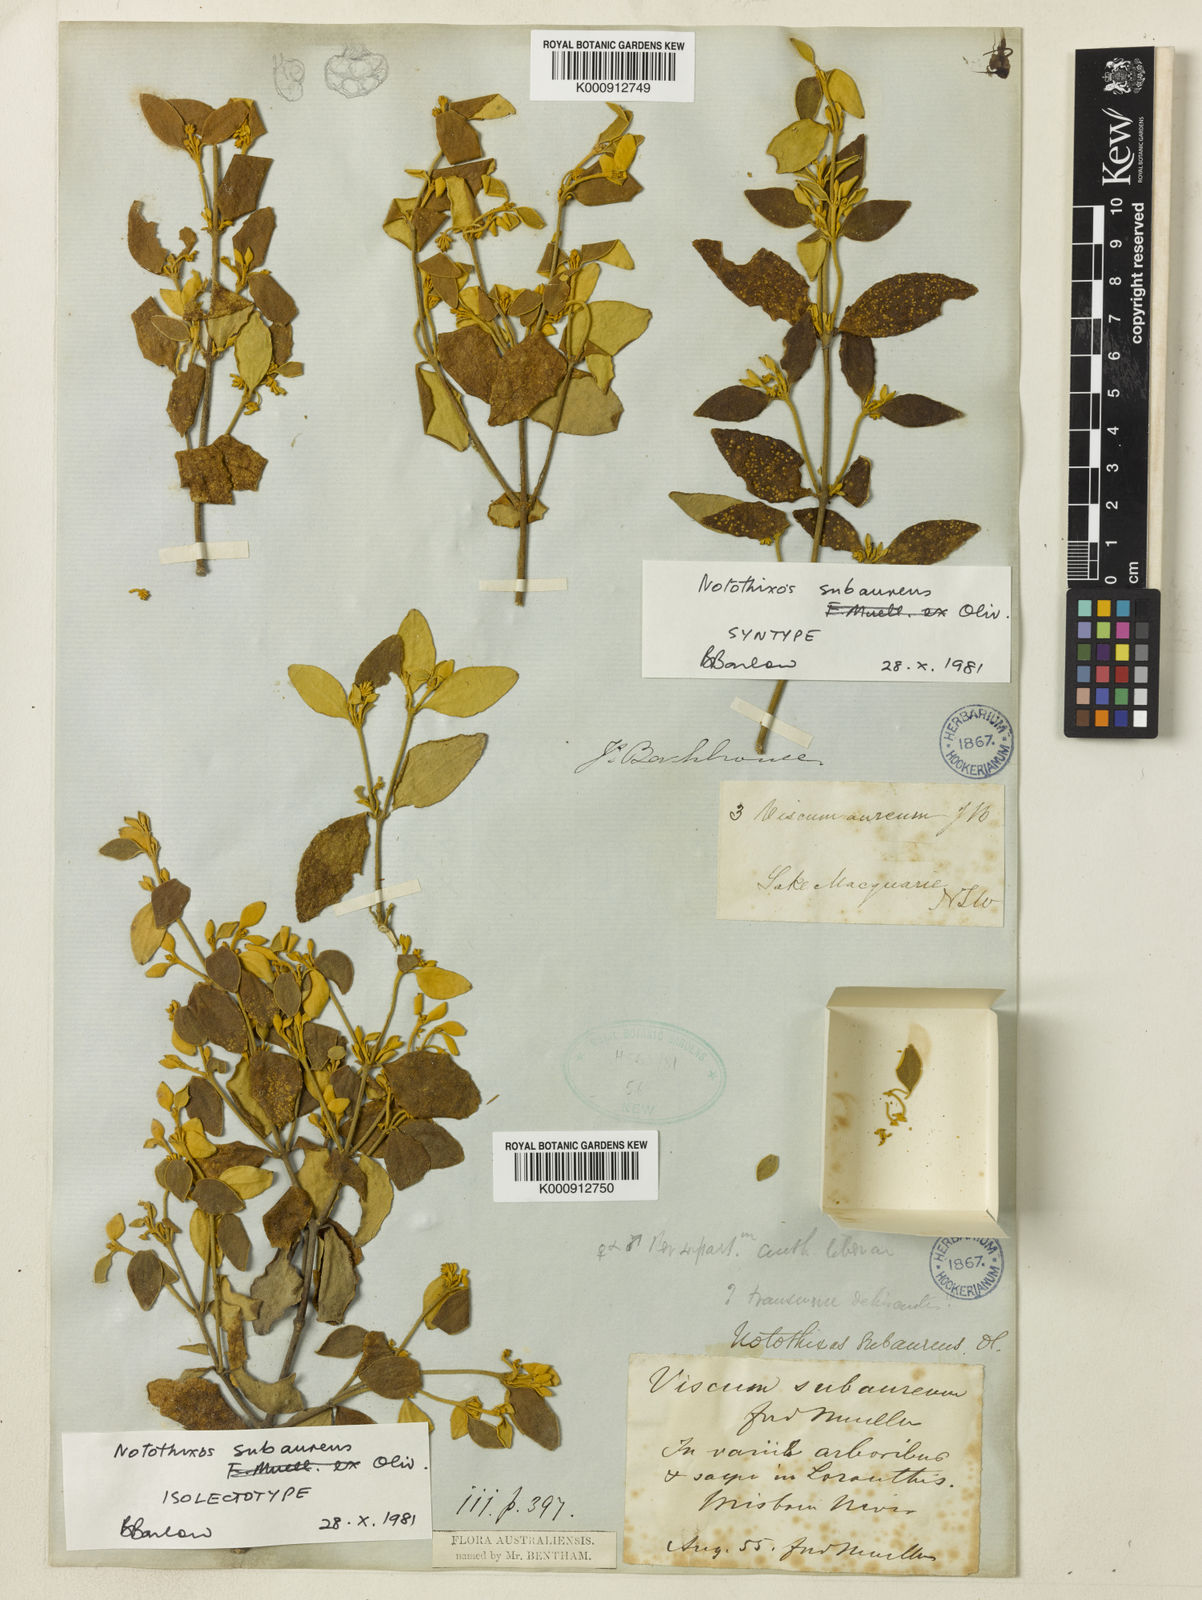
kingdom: Plantae
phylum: Tracheophyta
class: Magnoliopsida
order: Santalales
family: Viscaceae
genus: Notothixos
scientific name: Notothixos subaureus
